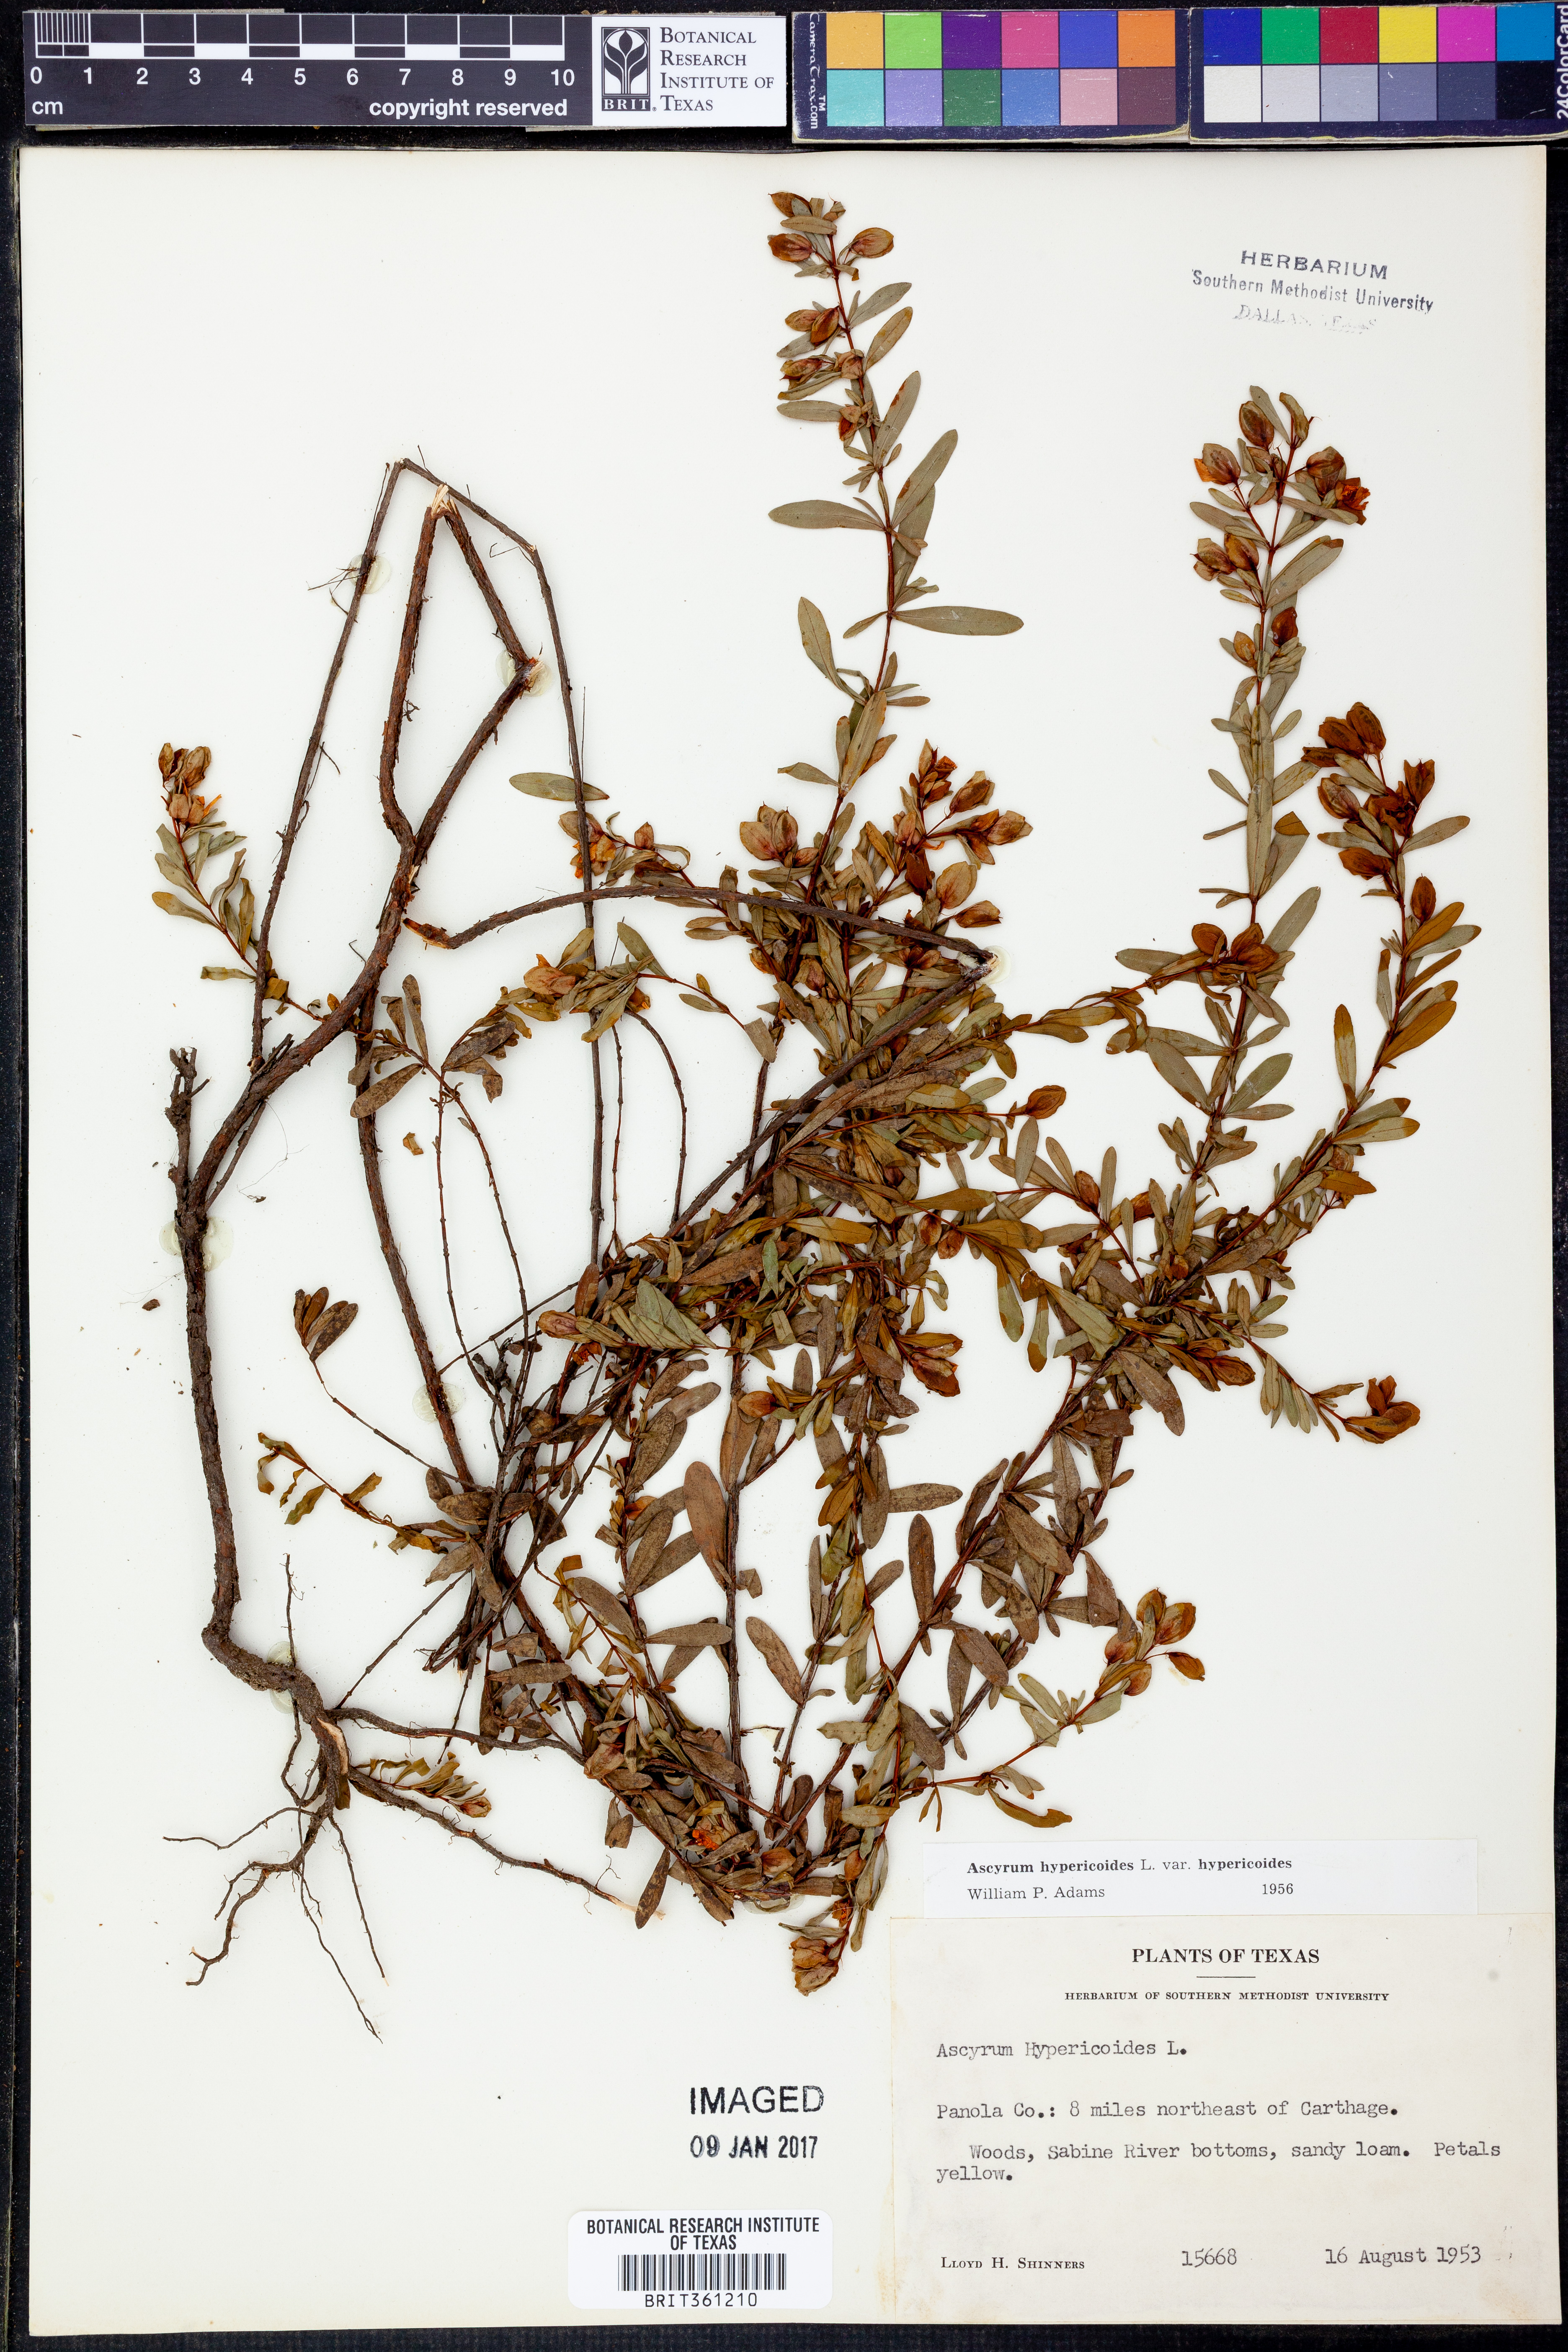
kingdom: Plantae
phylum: Tracheophyta
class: Magnoliopsida
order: Malpighiales
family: Hypericaceae
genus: Hypericum
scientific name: Hypericum hypericoides
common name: St. andrew's cross
